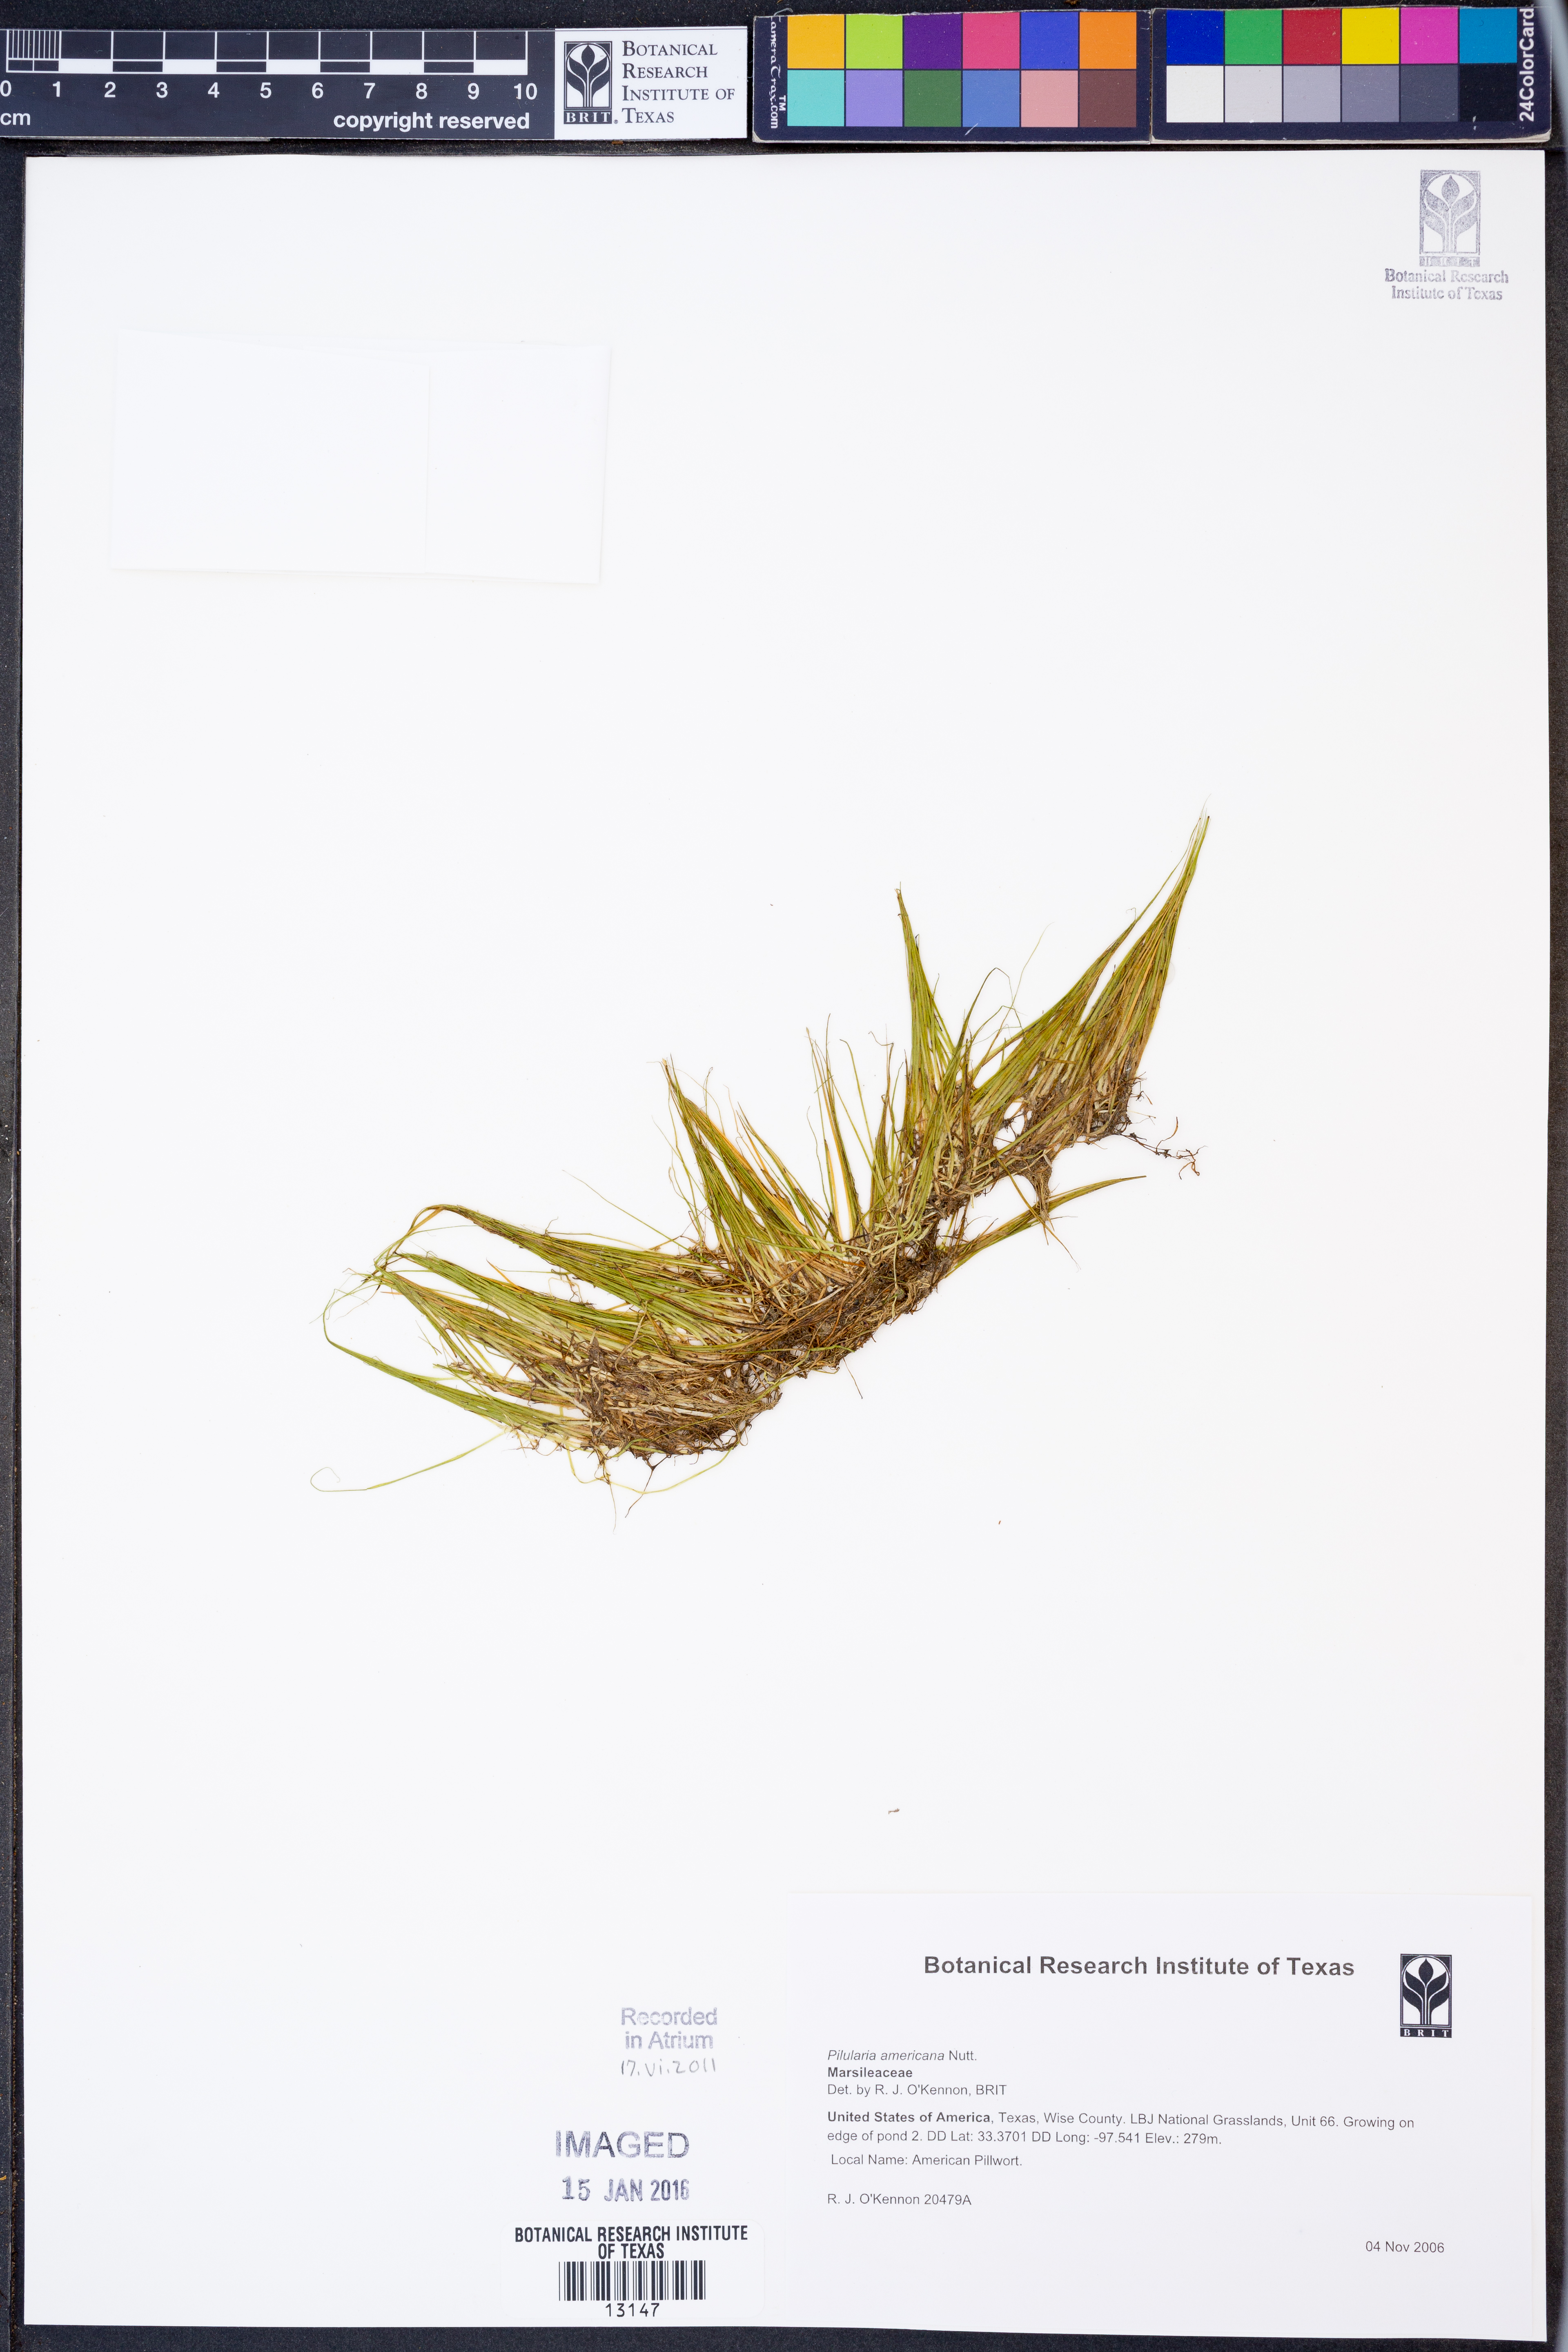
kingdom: Plantae
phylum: Tracheophyta
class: Polypodiopsida
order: Salviniales
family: Marsileaceae
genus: Pilularia
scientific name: Pilularia americana
